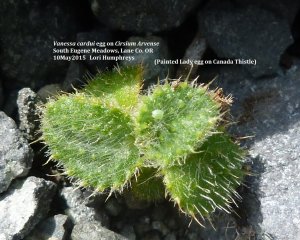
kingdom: Animalia
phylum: Arthropoda
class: Insecta
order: Lepidoptera
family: Nymphalidae
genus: Vanessa
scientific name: Vanessa cardui
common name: Painted Lady
